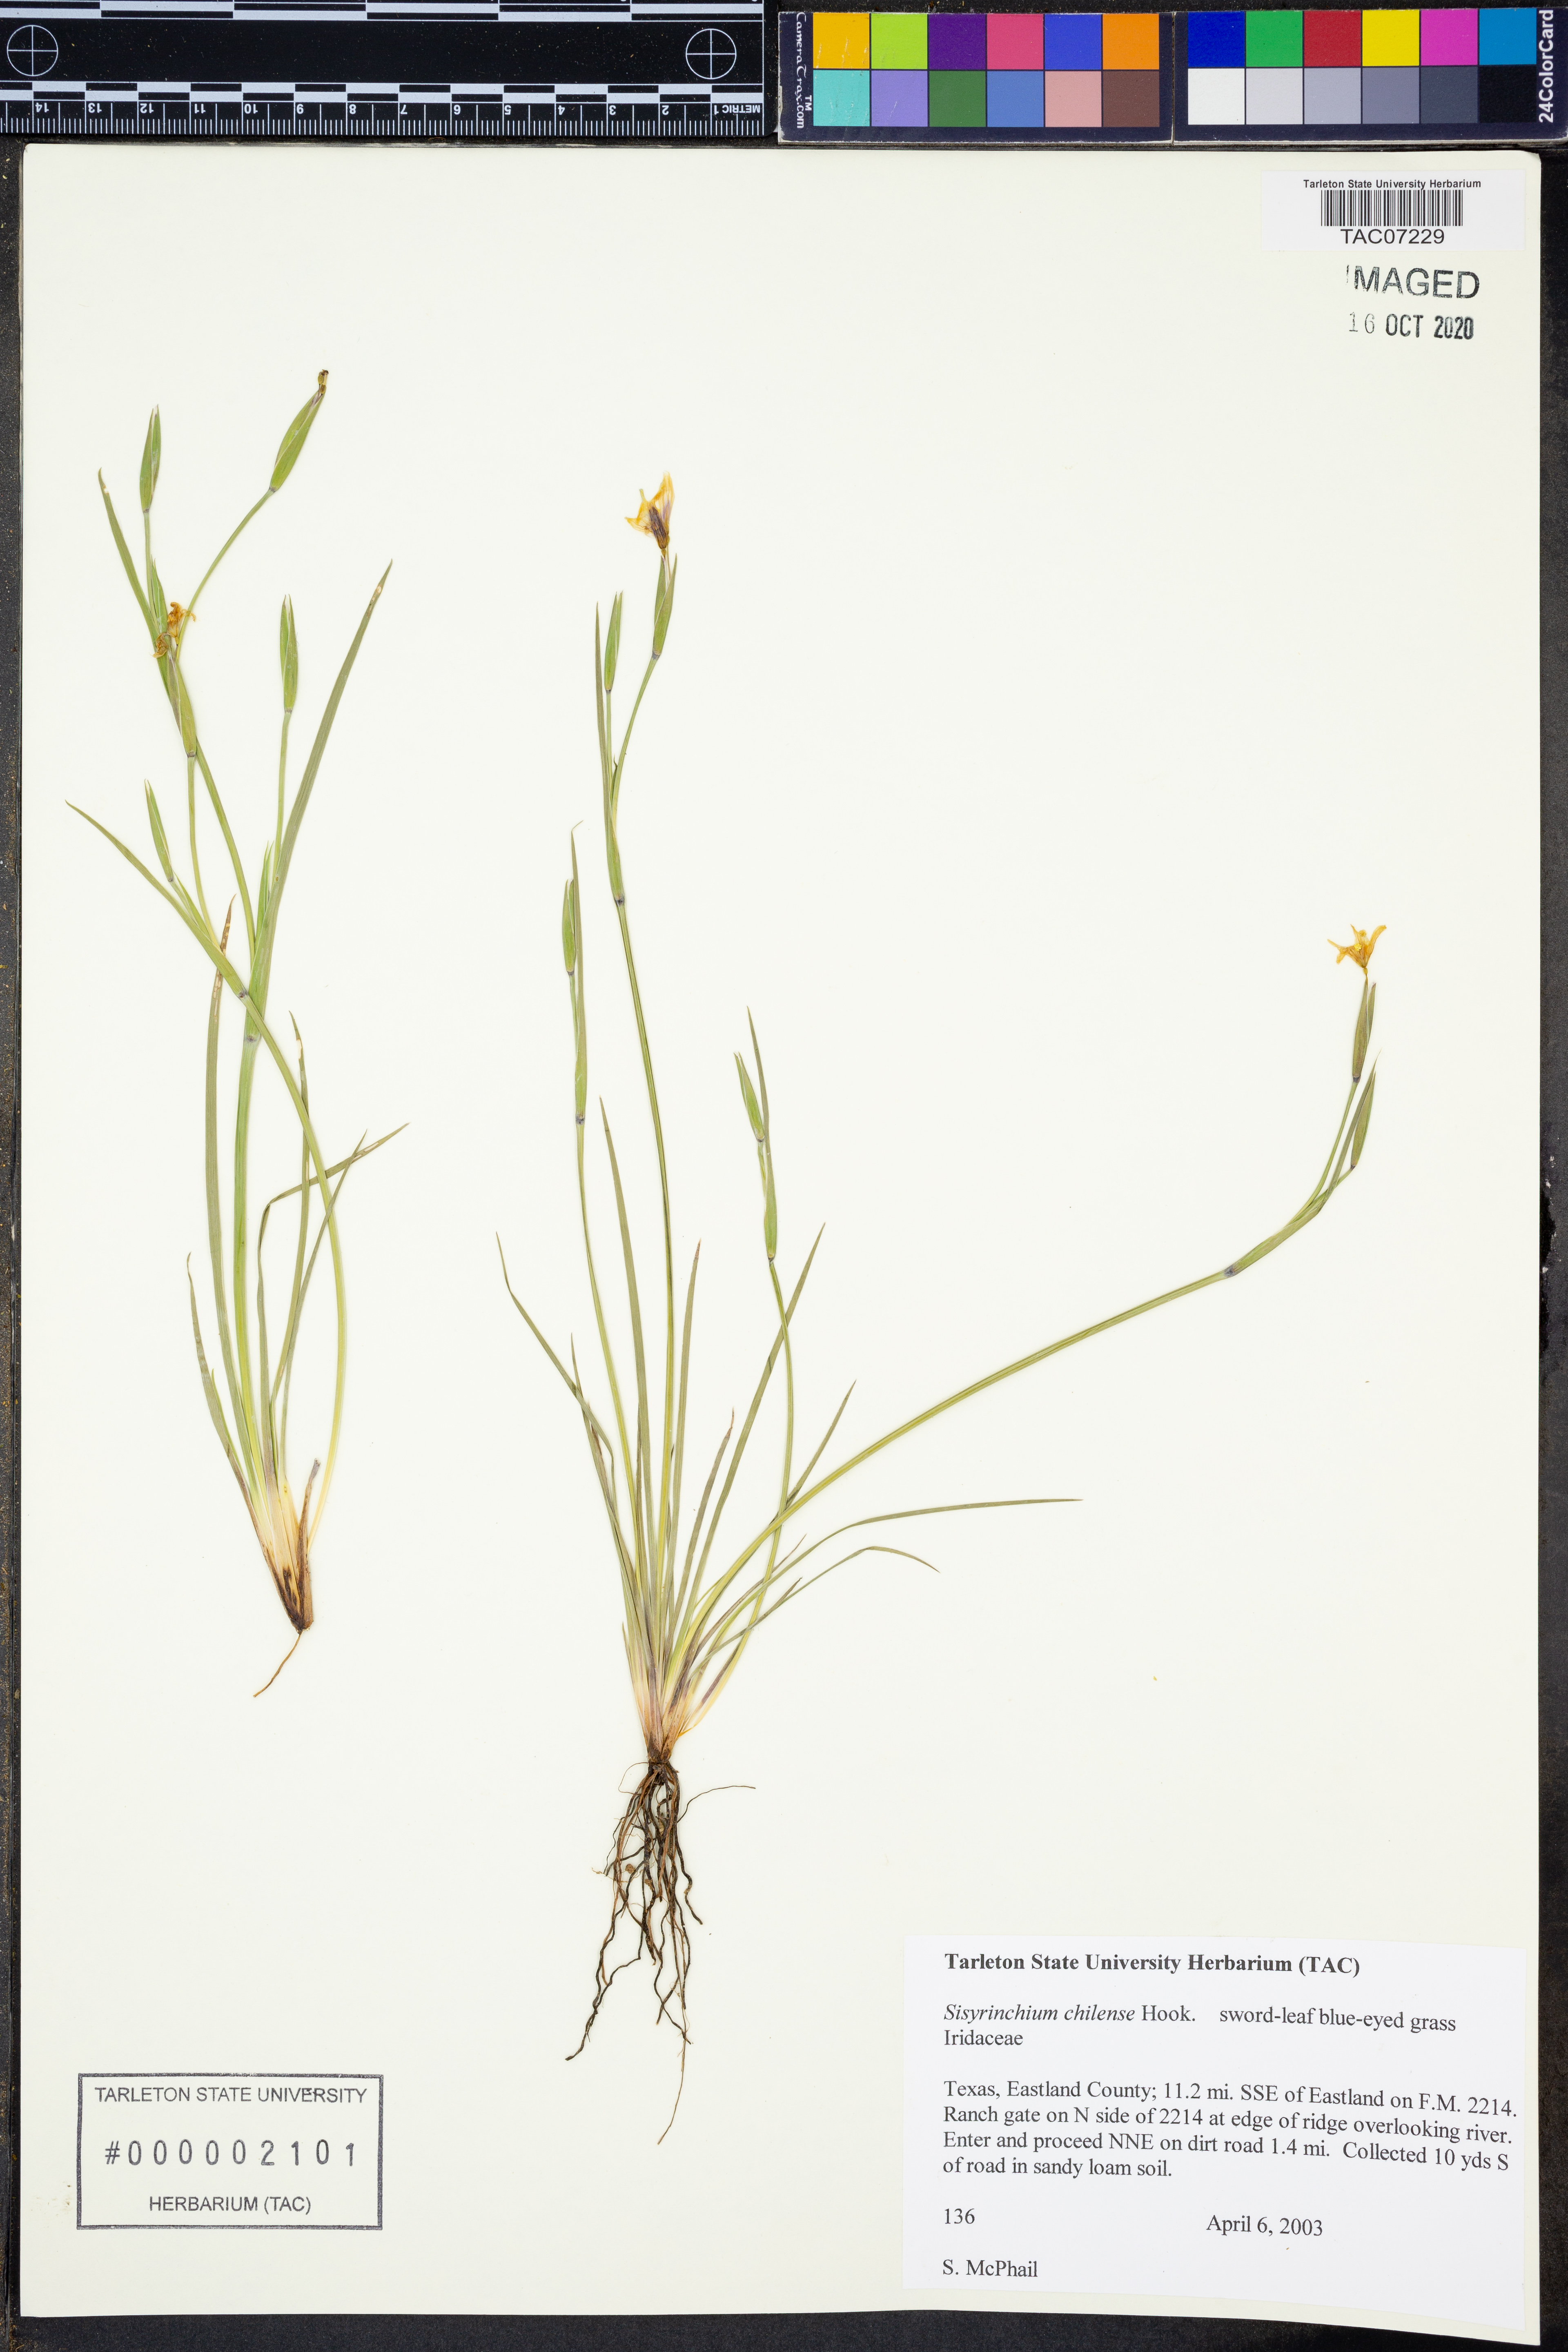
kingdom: Plantae
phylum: Tracheophyta
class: Liliopsida
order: Asparagales
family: Iridaceae
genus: Sisyrinchium
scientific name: Sisyrinchium chilense
